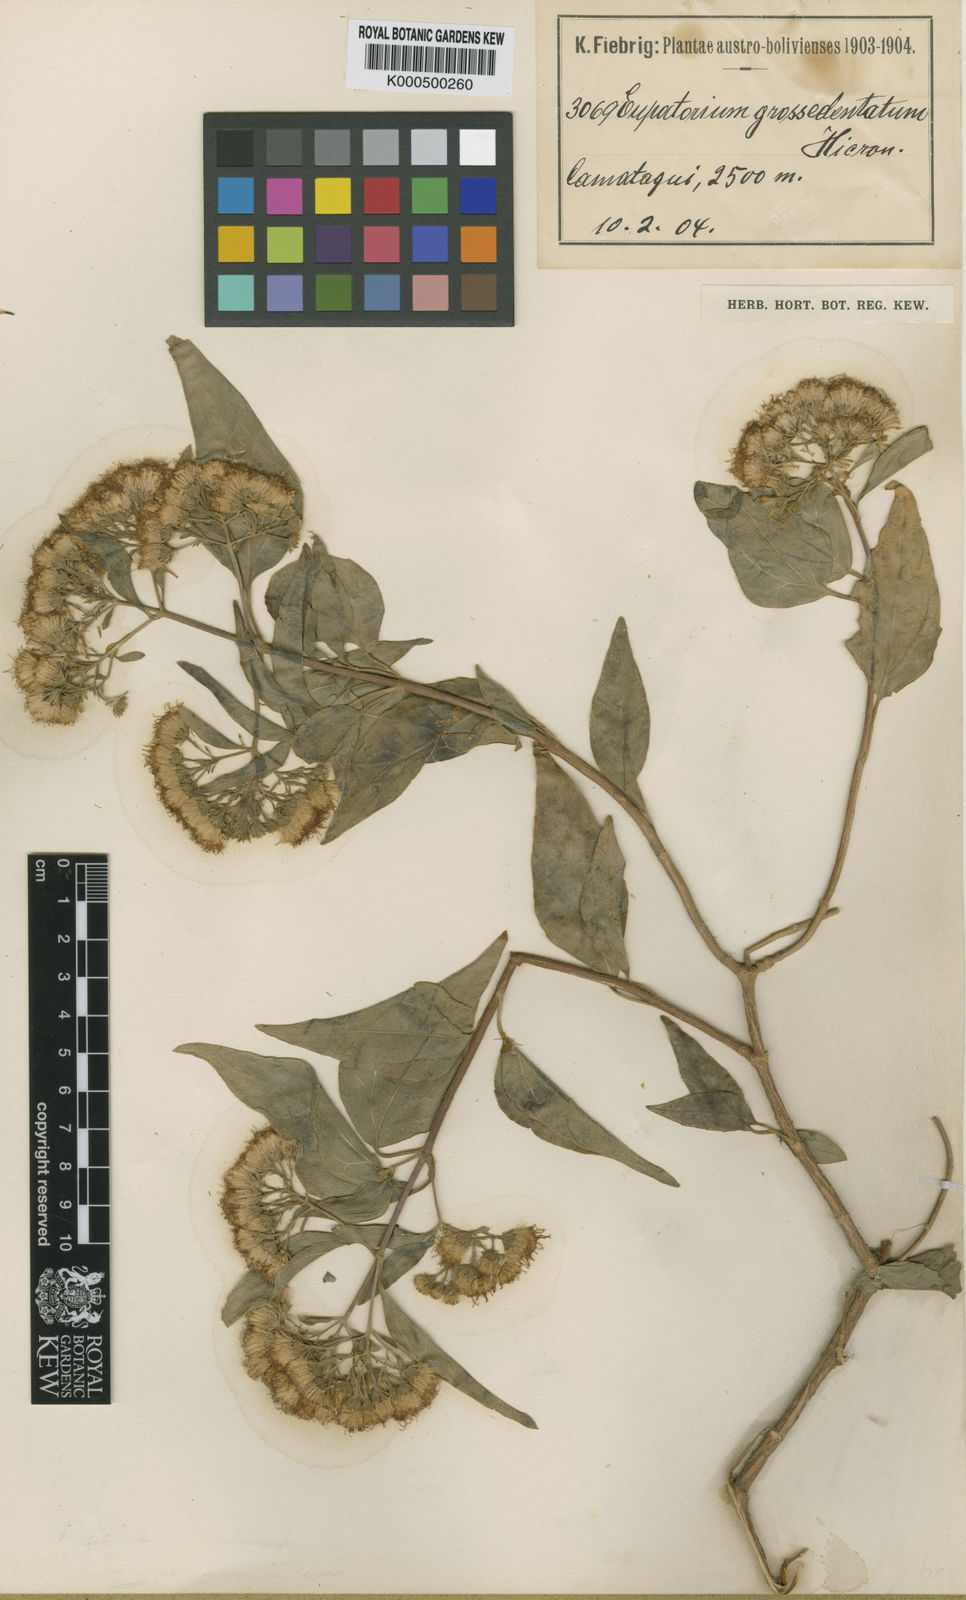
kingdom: Plantae
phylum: Tracheophyta
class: Magnoliopsida
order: Asterales
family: Asteraceae
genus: Kaunia
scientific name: Kaunia camataguiensis
